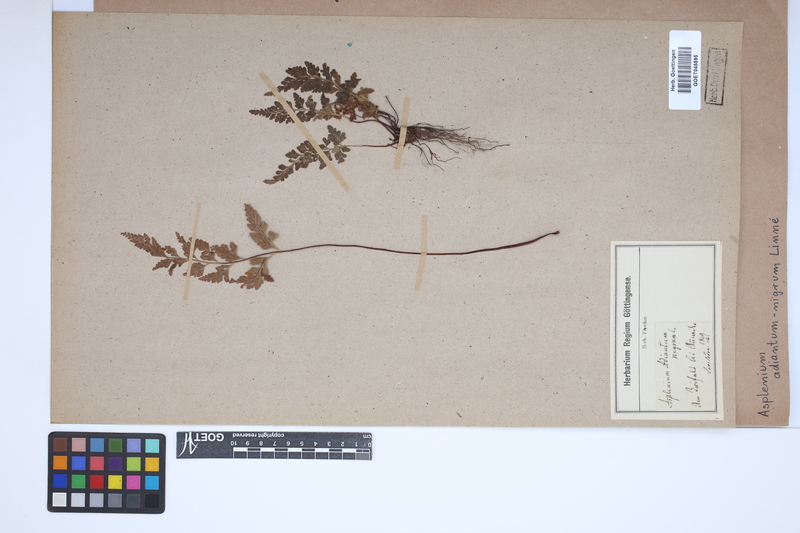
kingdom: Plantae
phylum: Tracheophyta
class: Polypodiopsida
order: Polypodiales
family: Aspleniaceae
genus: Asplenium
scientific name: Asplenium adiantum-nigrum
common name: Black spleenwort
